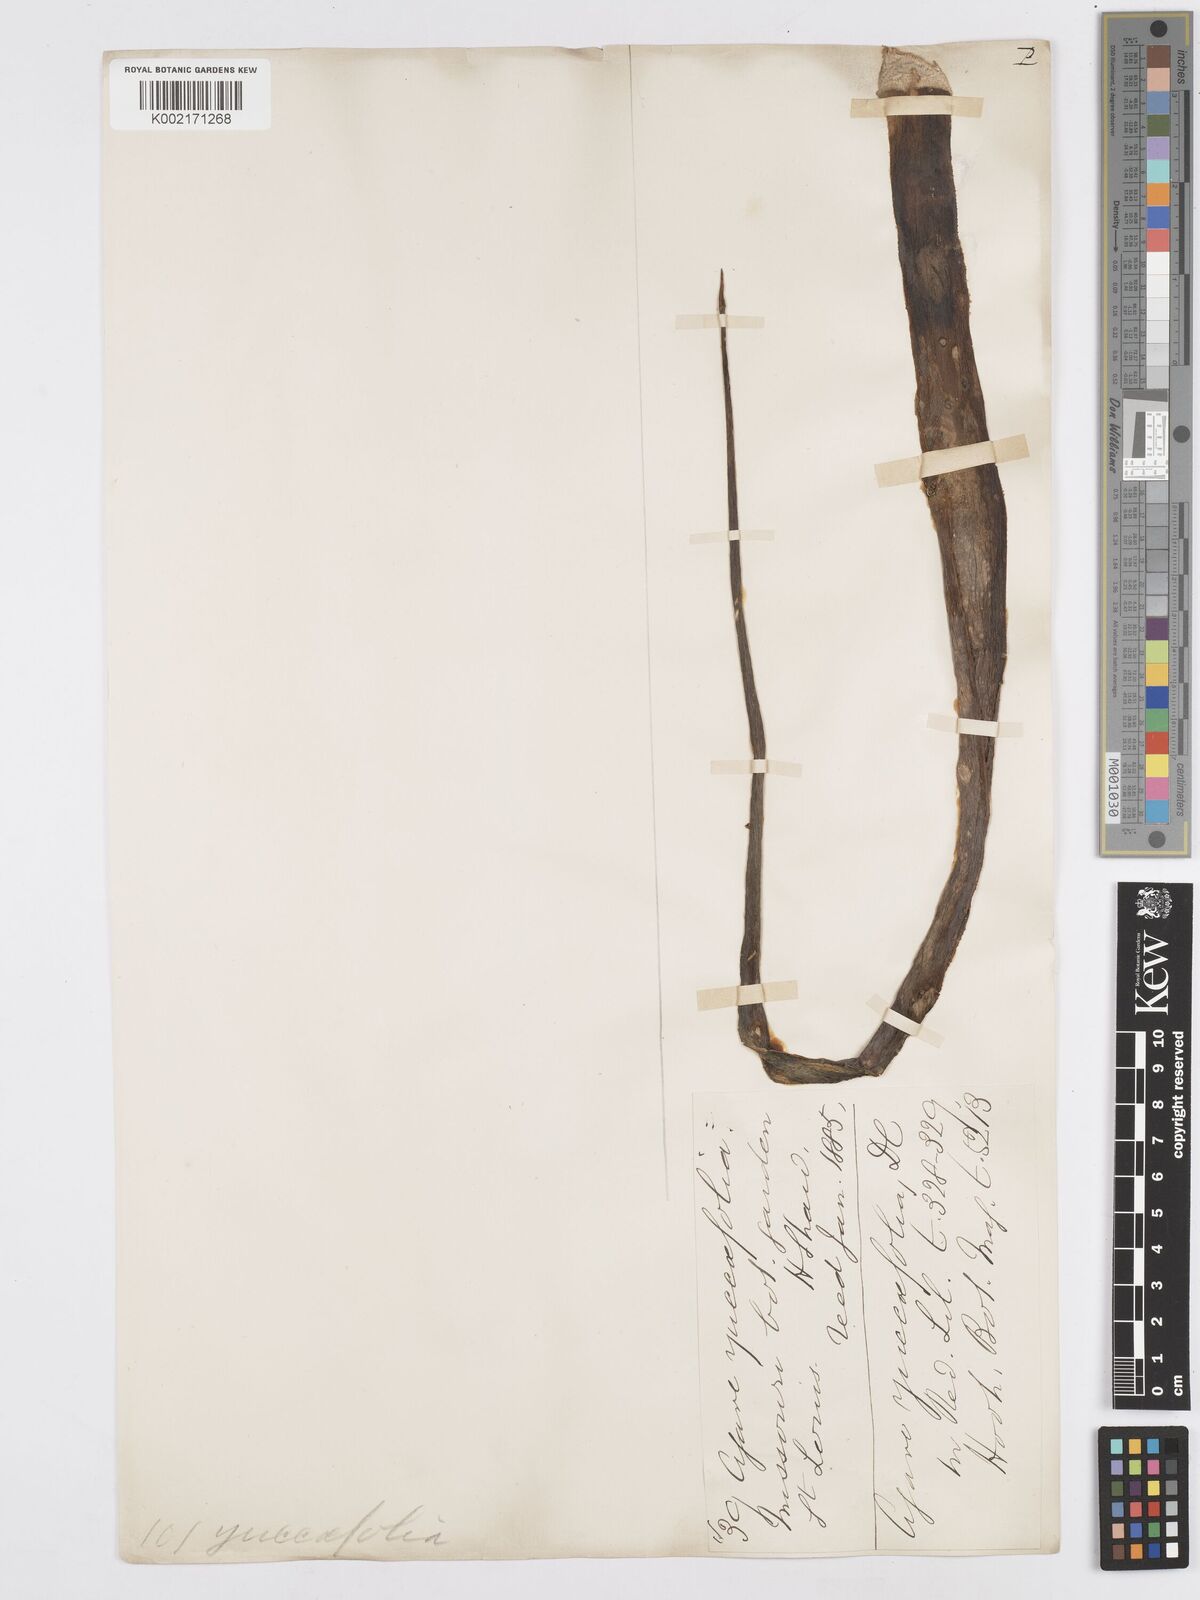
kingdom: Plantae
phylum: Tracheophyta
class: Liliopsida
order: Asparagales
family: Asparagaceae
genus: Agave
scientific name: Agave spicata
